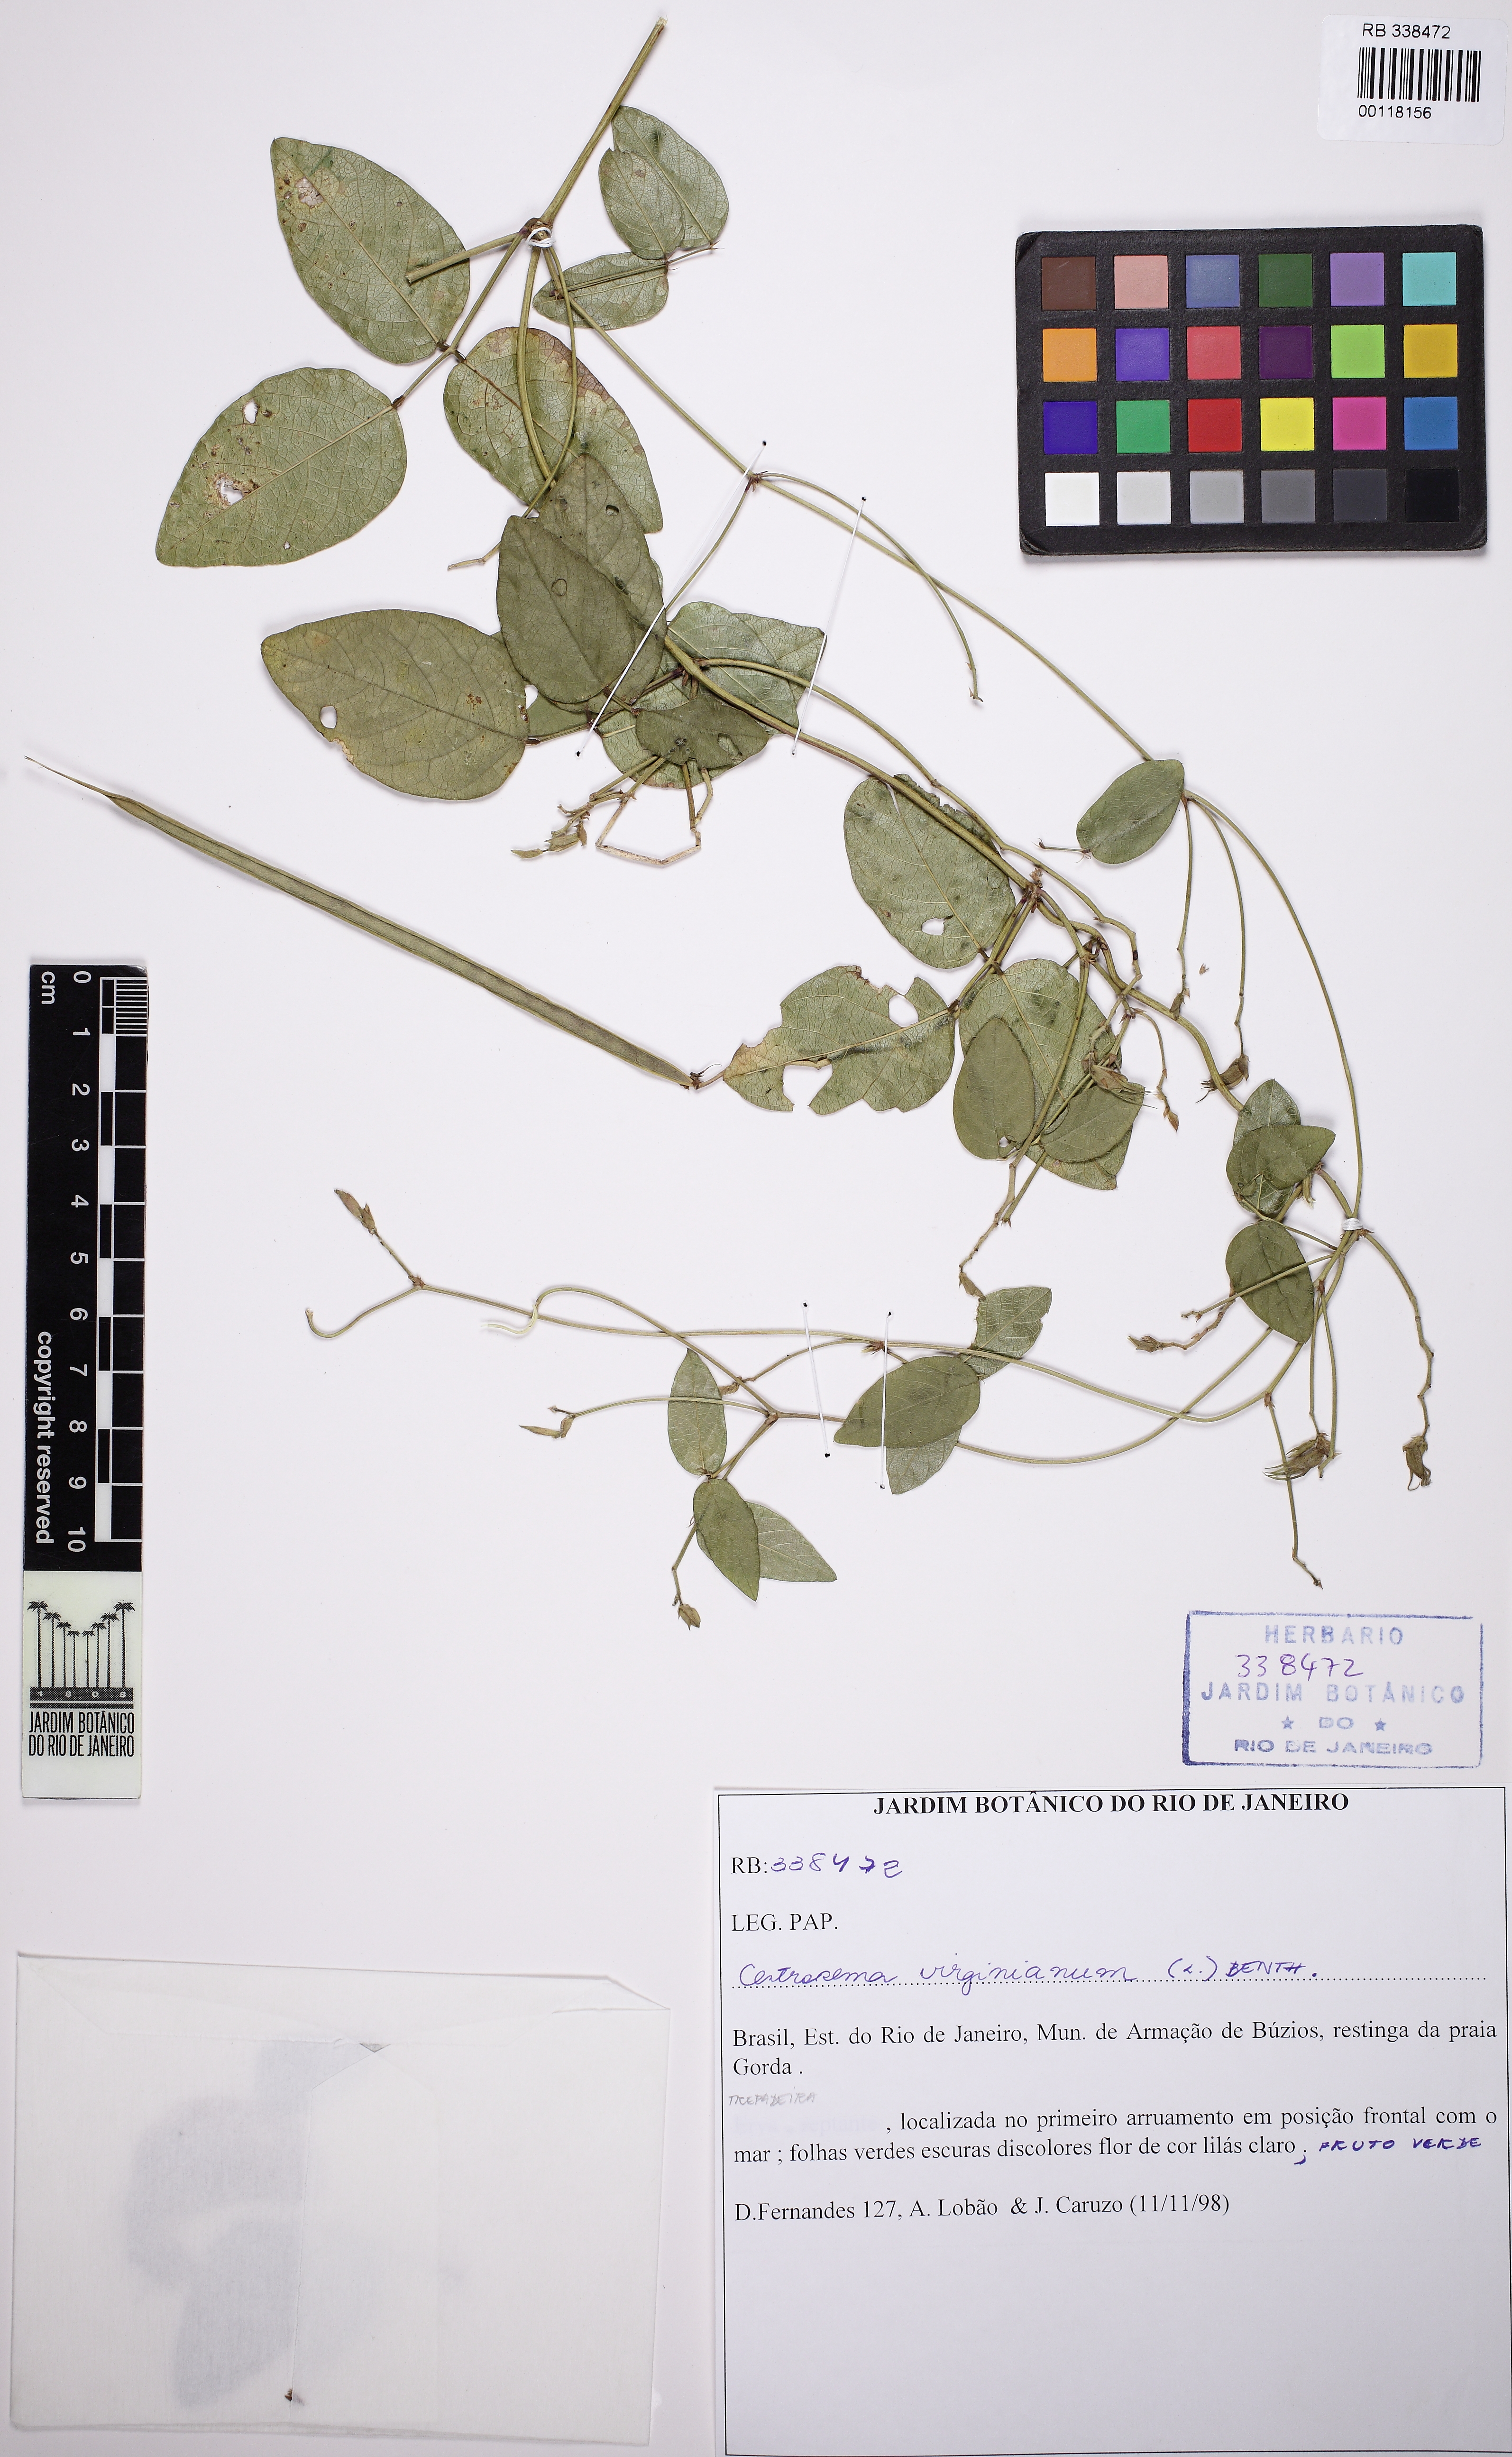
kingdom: Plantae
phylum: Tracheophyta
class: Magnoliopsida
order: Fabales
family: Fabaceae
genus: Centrosema
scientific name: Centrosema virginianum
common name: Butterfly-pea
